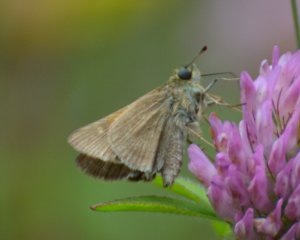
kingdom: Animalia
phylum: Arthropoda
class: Insecta
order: Lepidoptera
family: Hesperiidae
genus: Polites
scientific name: Polites themistocles
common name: Tawny-edged Skipper
